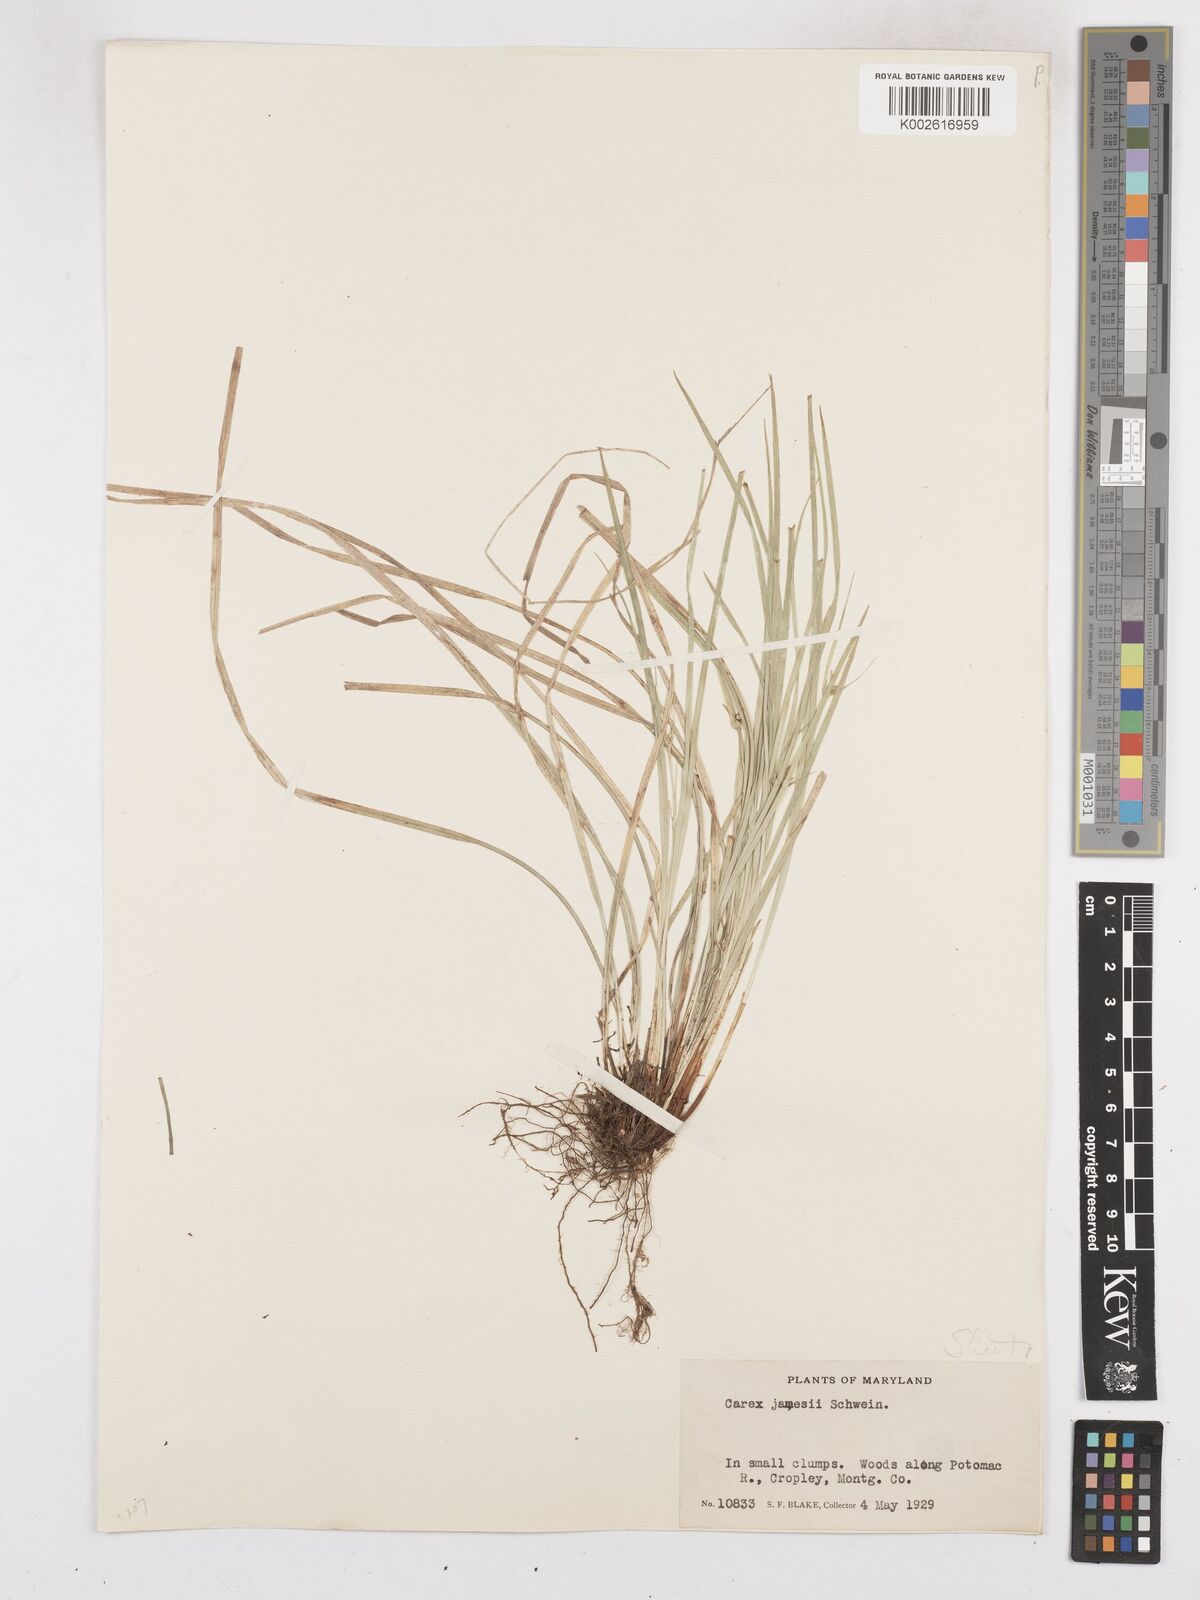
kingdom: Plantae
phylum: Tracheophyta
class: Liliopsida
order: Poales
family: Cyperaceae
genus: Carex
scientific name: Carex jamesii
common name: Grass sedge
